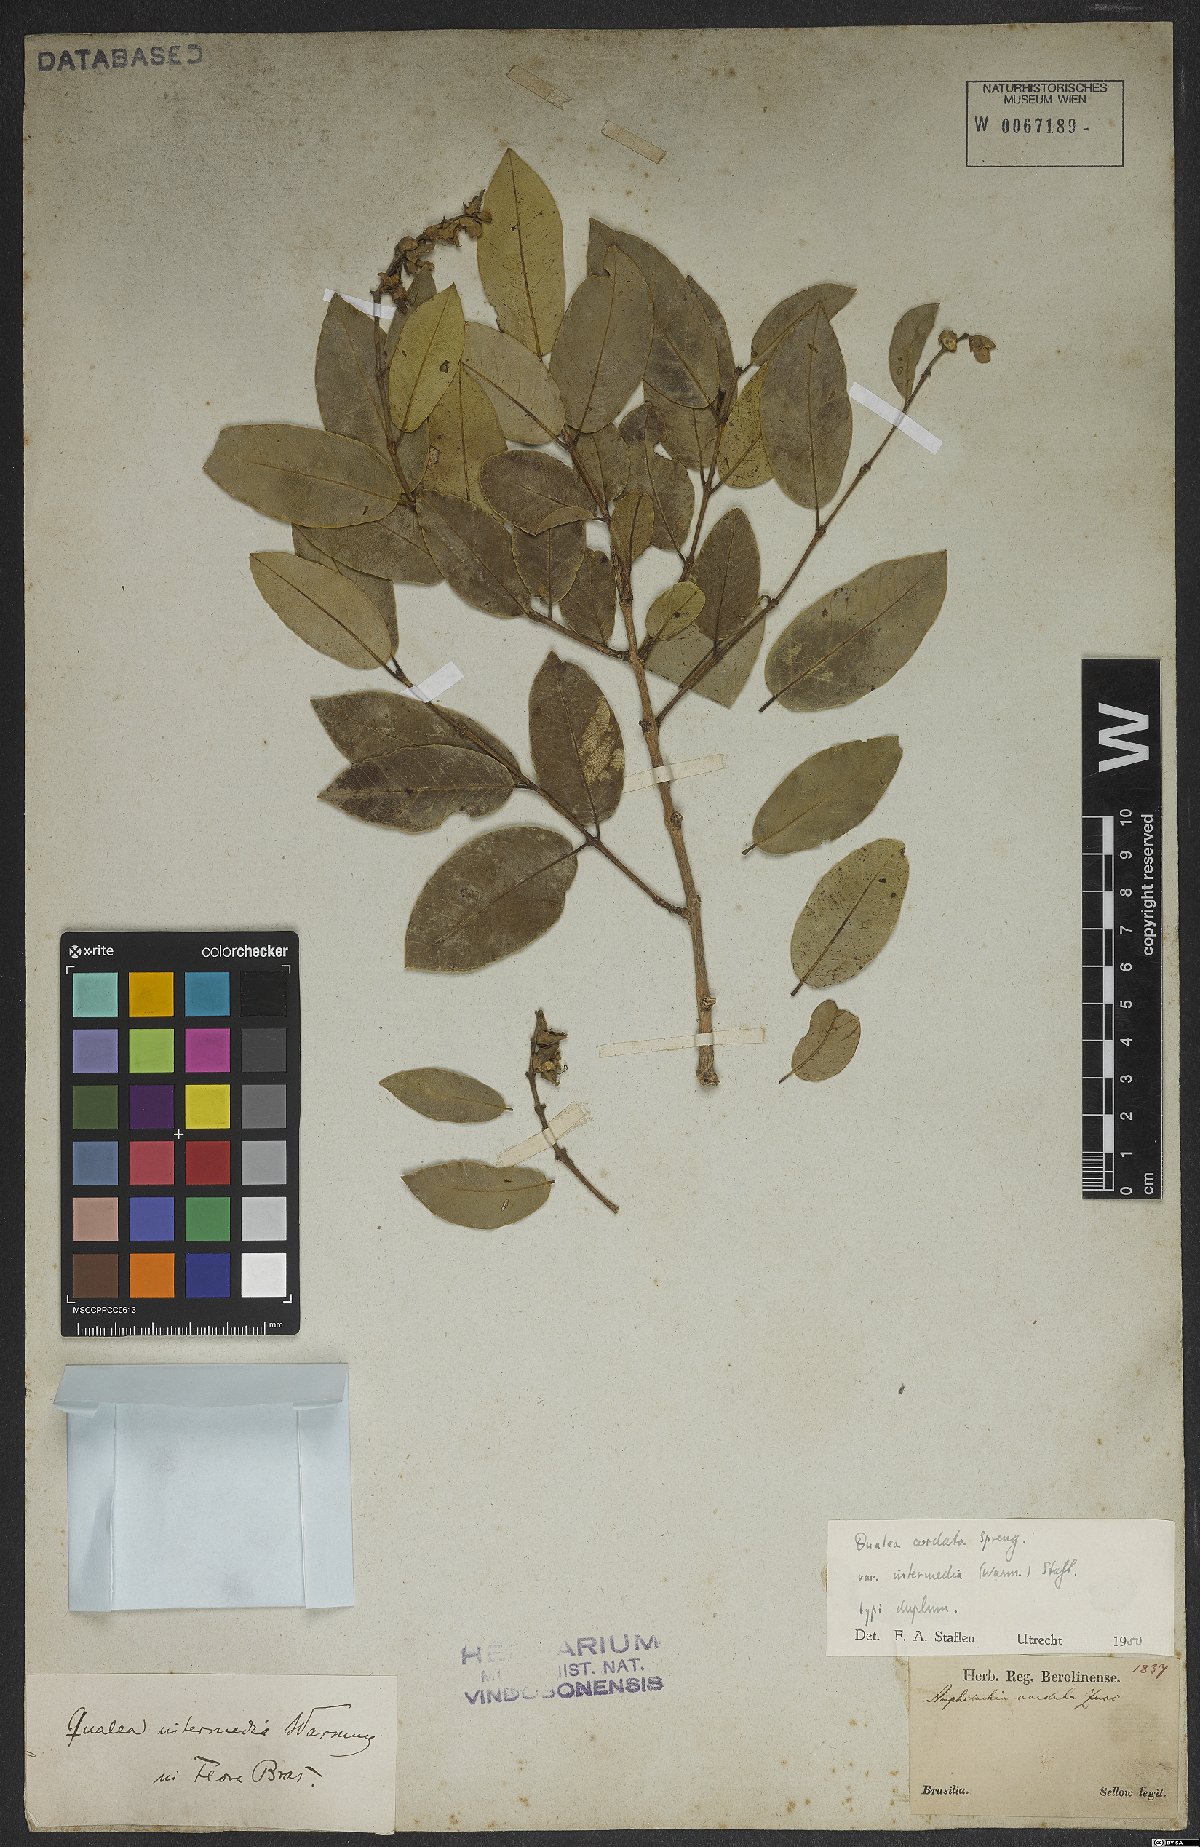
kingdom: Plantae
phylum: Tracheophyta
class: Magnoliopsida
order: Myrtales
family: Vochysiaceae
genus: Qualea
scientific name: Qualea cordata
